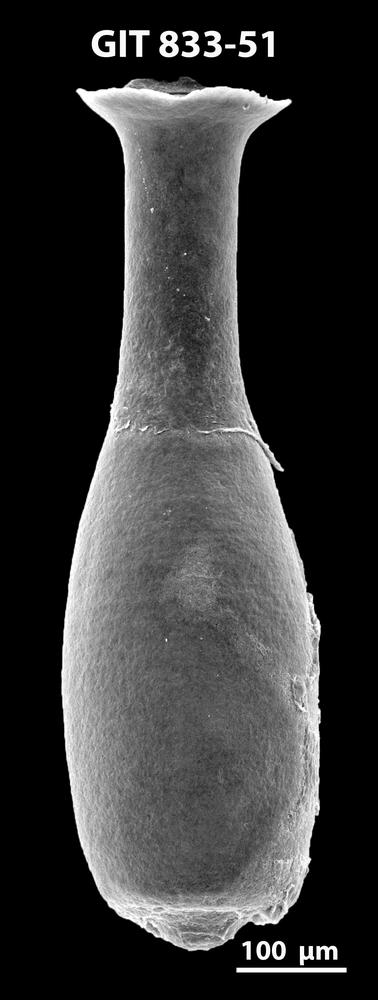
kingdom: Animalia
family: Lagenochitinidae
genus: Lagenochitina
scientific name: Lagenochitina megaesthonica
